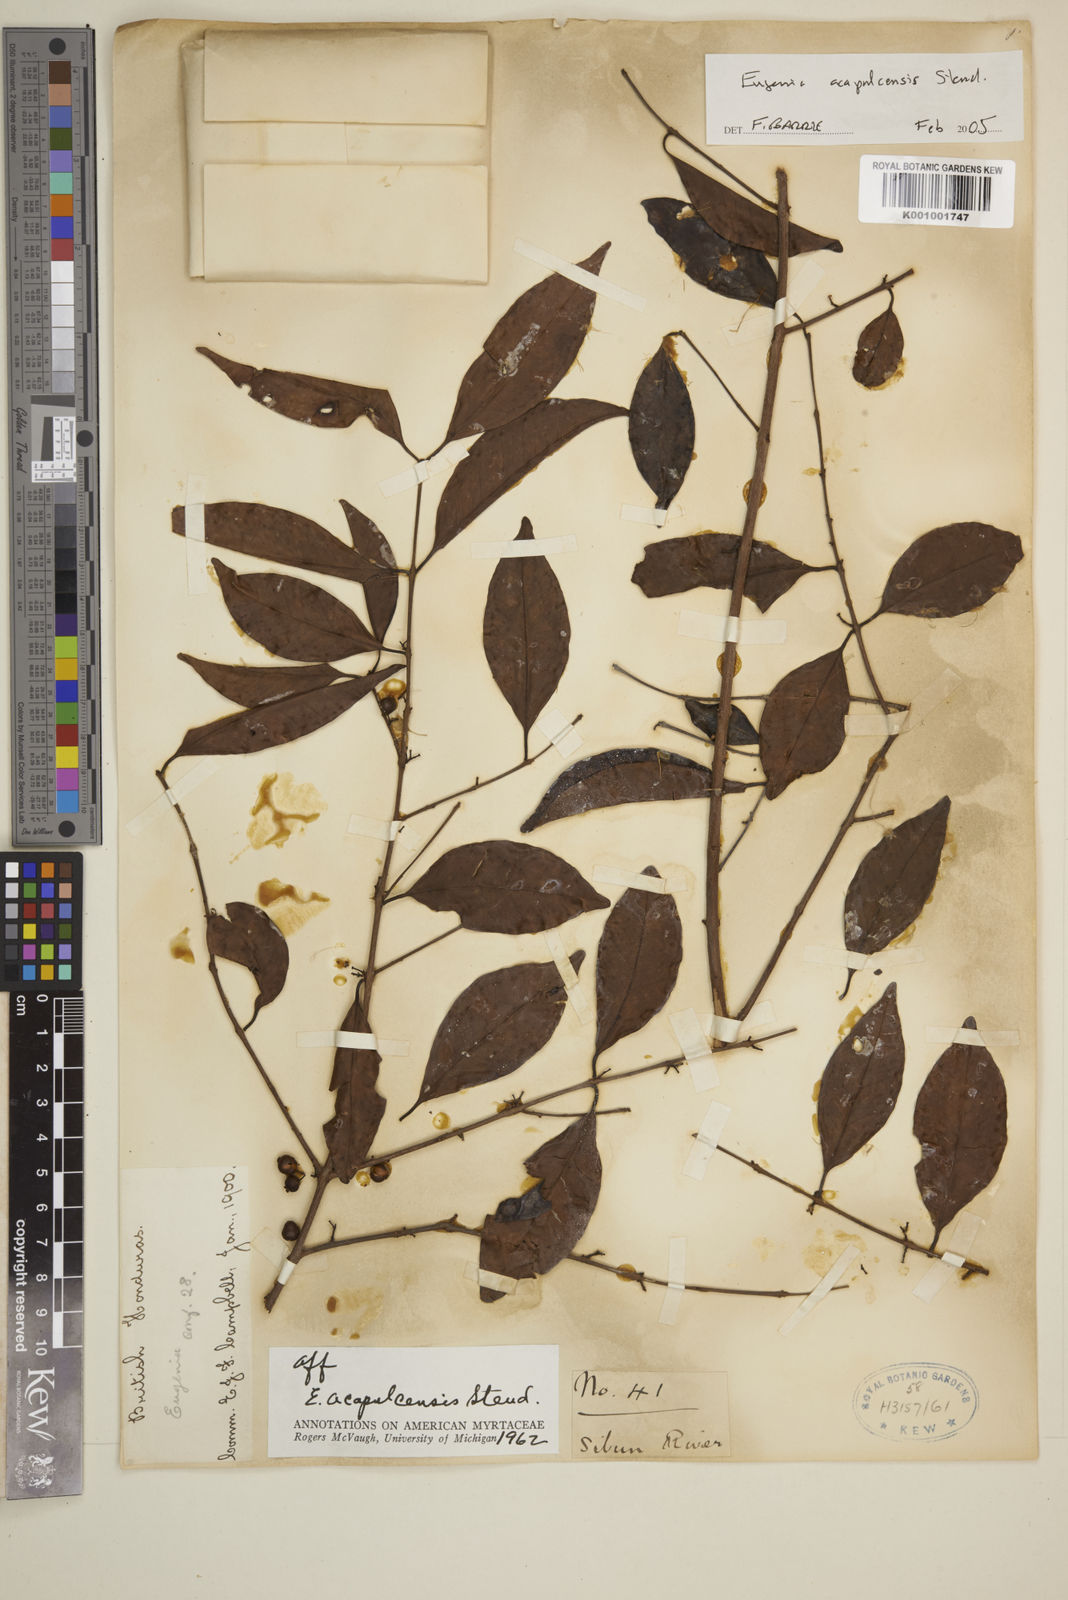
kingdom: Plantae
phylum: Tracheophyta
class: Magnoliopsida
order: Myrtales
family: Myrtaceae
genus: Eugenia
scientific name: Eugenia acapulcensis
